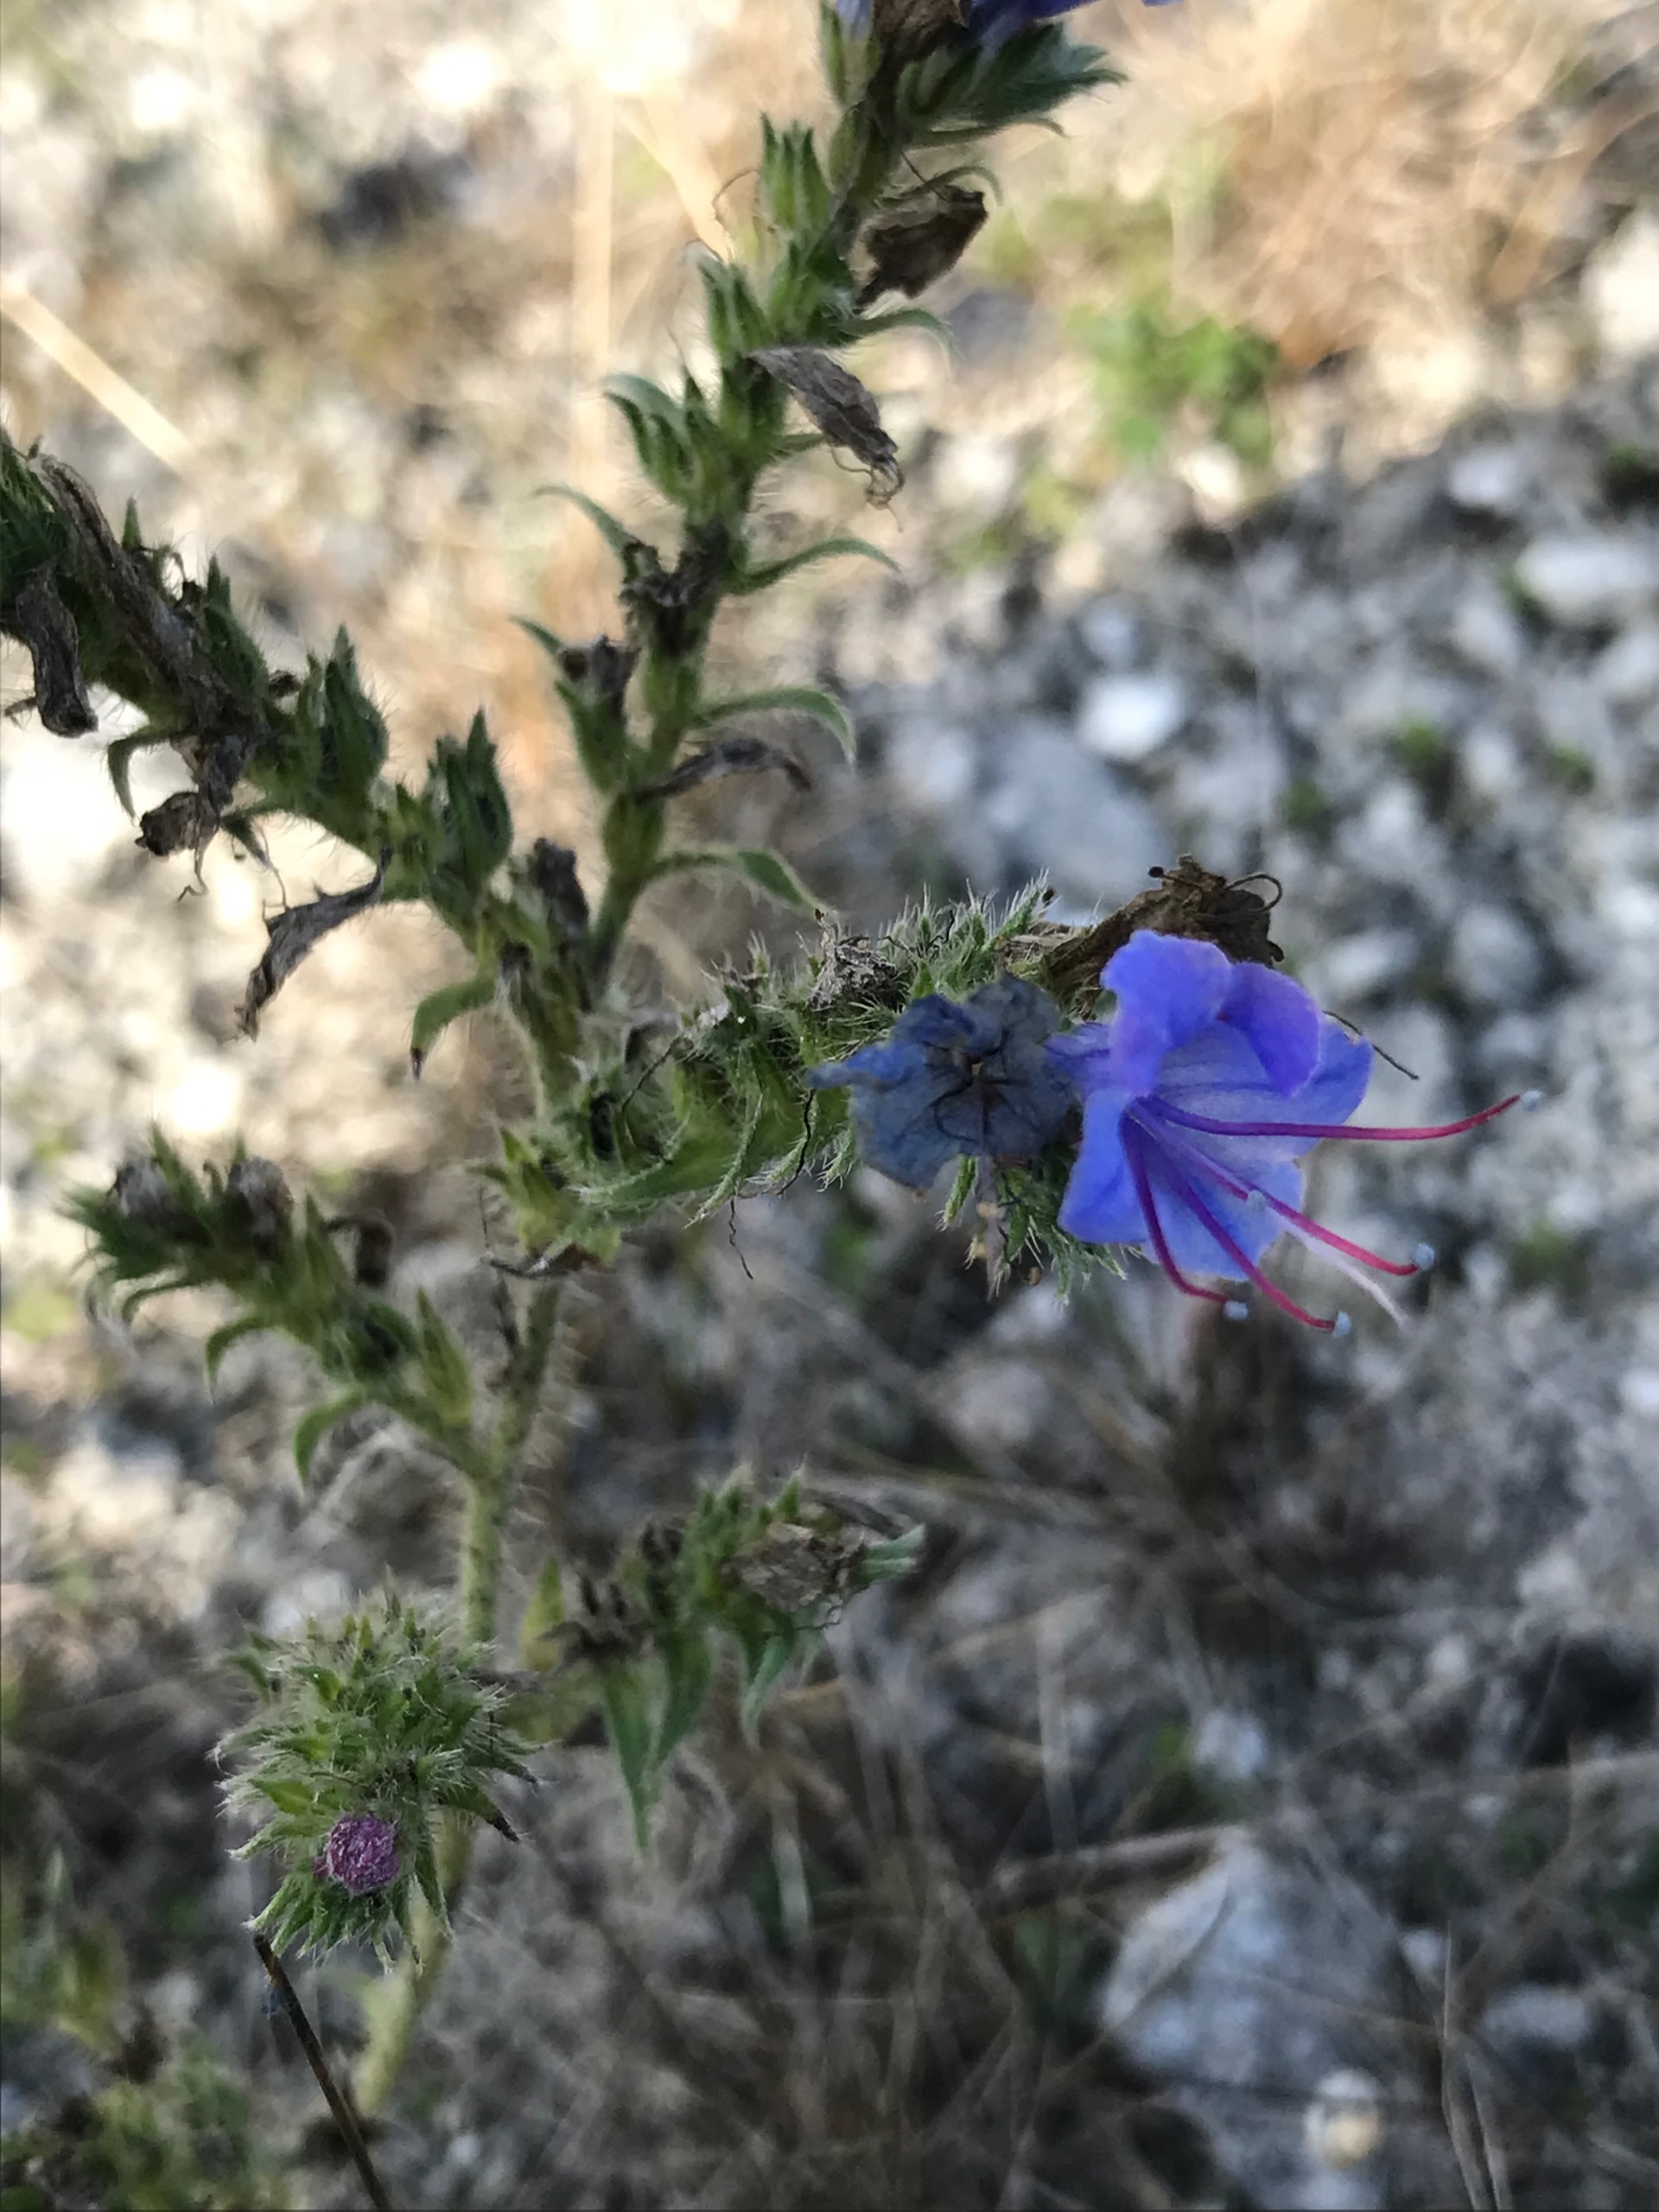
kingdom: Plantae
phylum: Tracheophyta
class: Magnoliopsida
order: Boraginales
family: Boraginaceae
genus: Echium
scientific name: Echium vulgare
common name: Slangehoved
